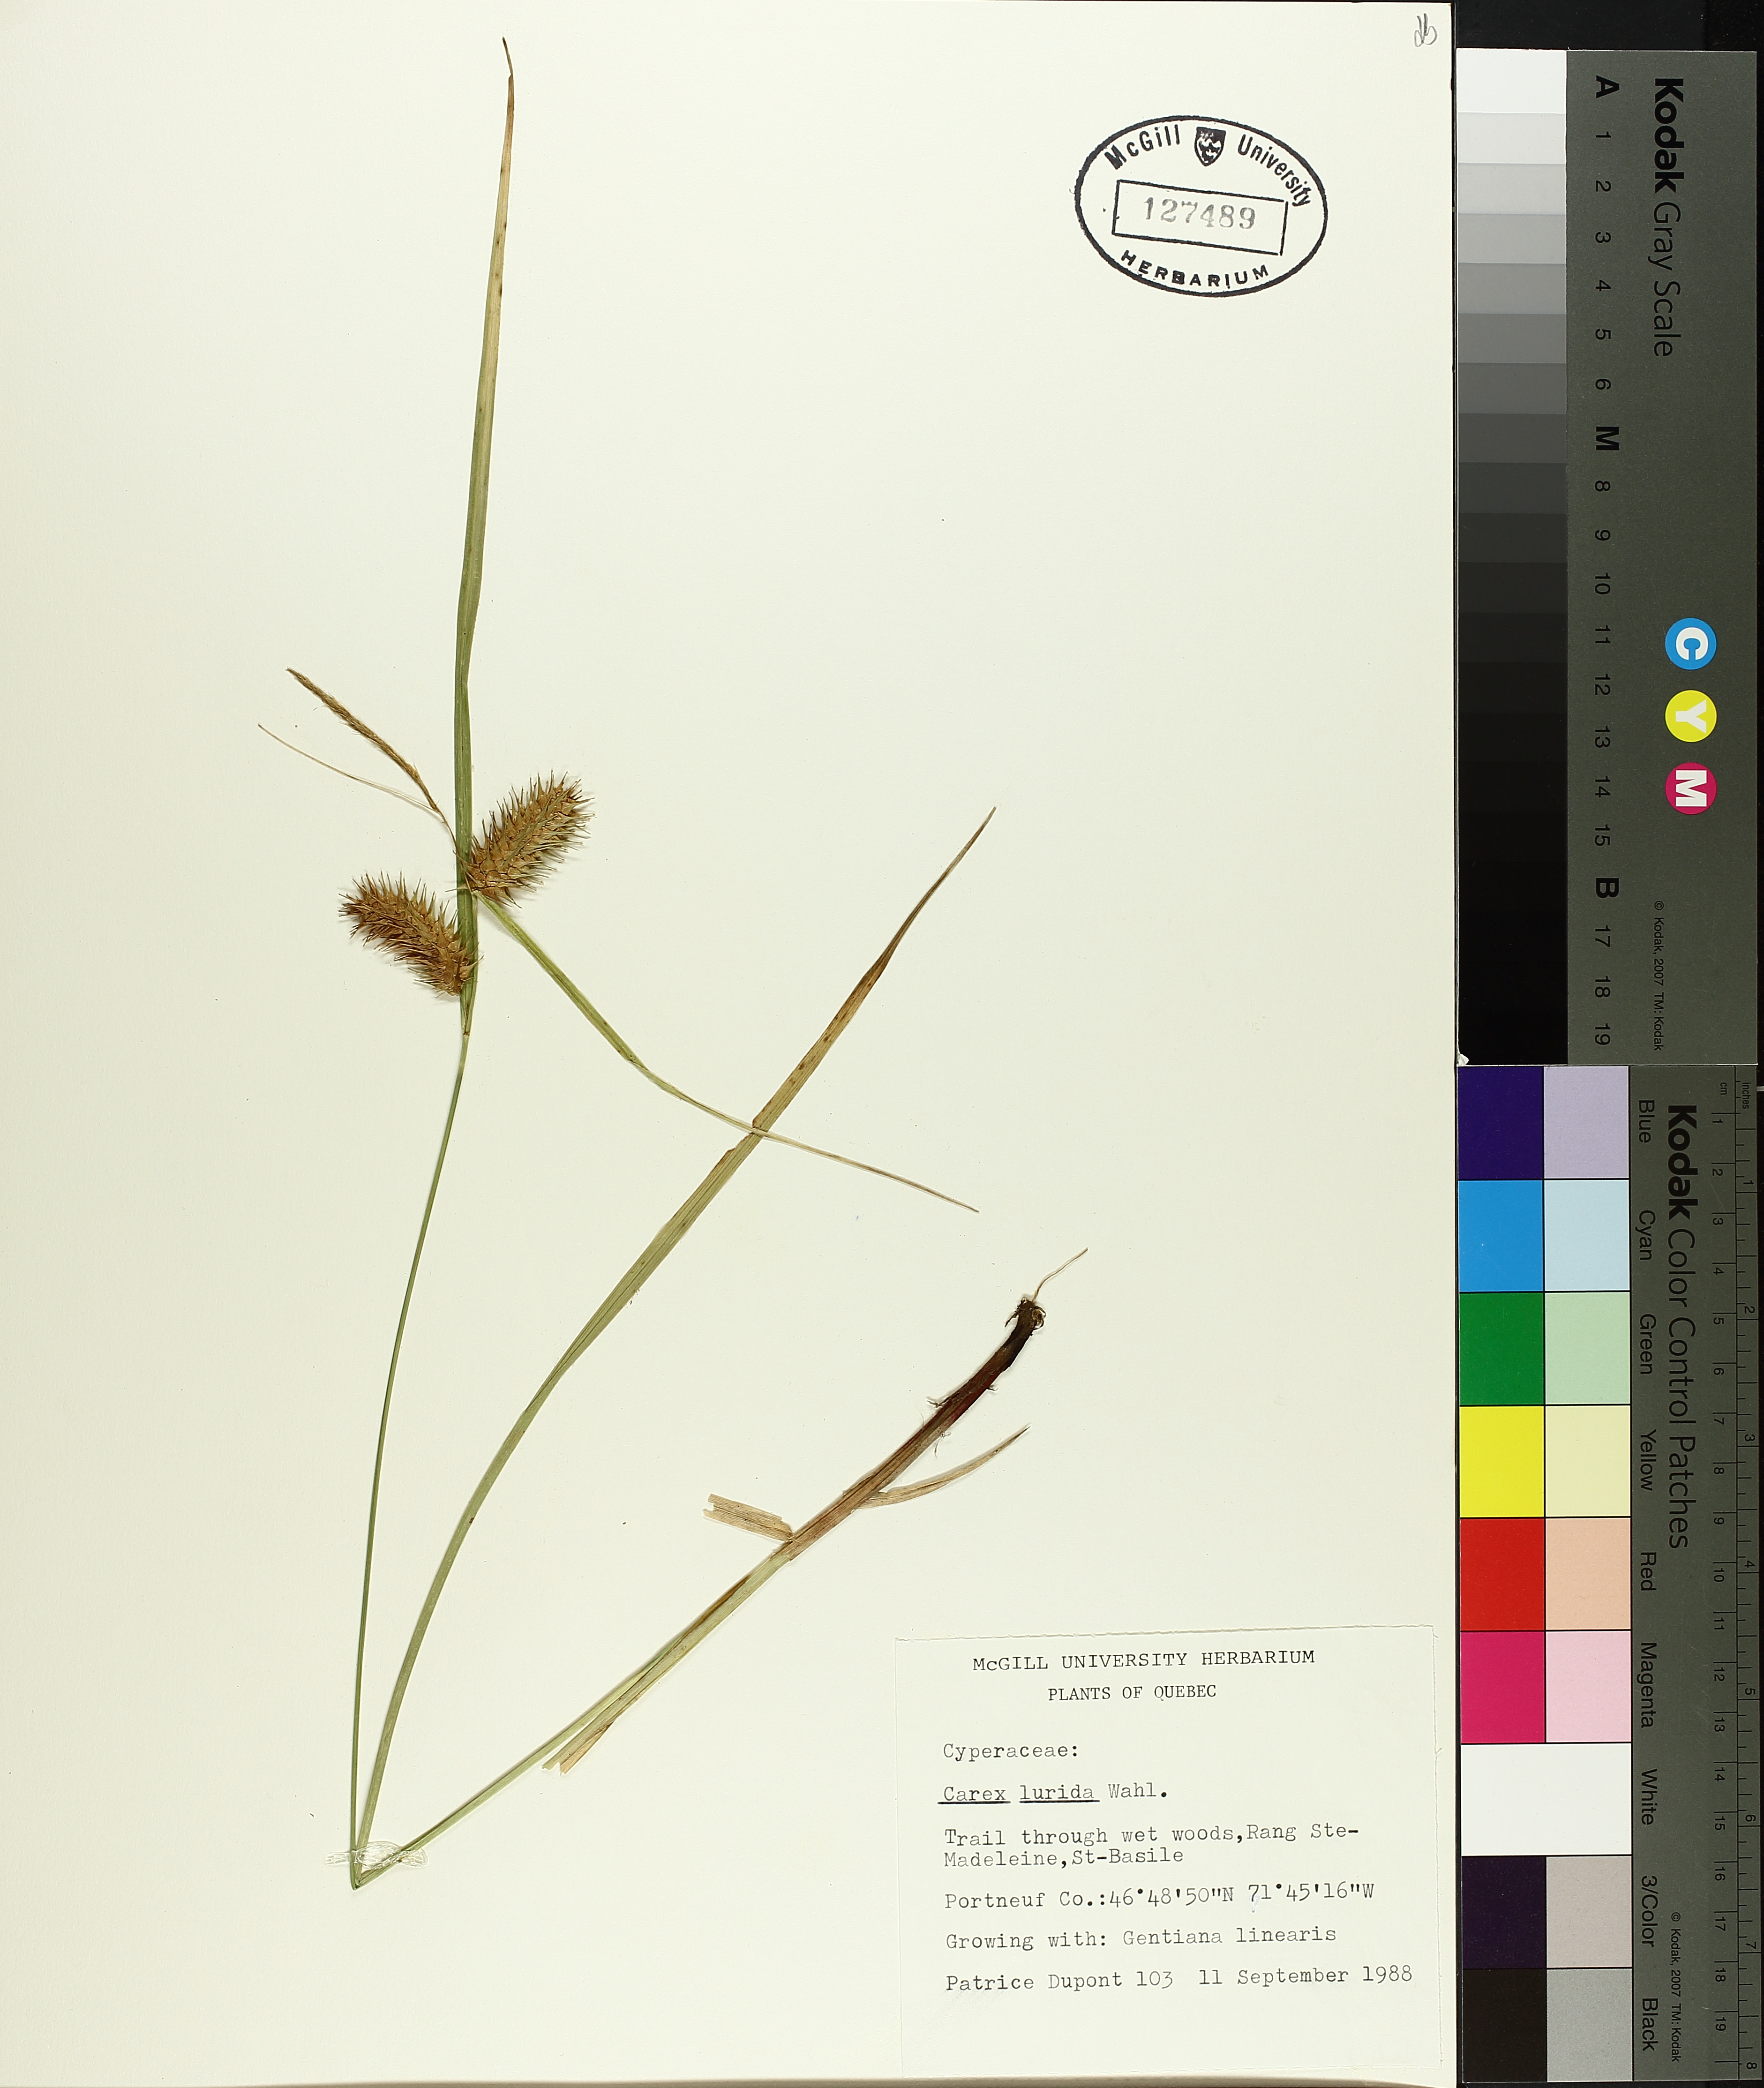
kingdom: Plantae
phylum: Tracheophyta
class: Liliopsida
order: Poales
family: Cyperaceae
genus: Carex
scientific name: Carex lurida
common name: Sallow sedge
